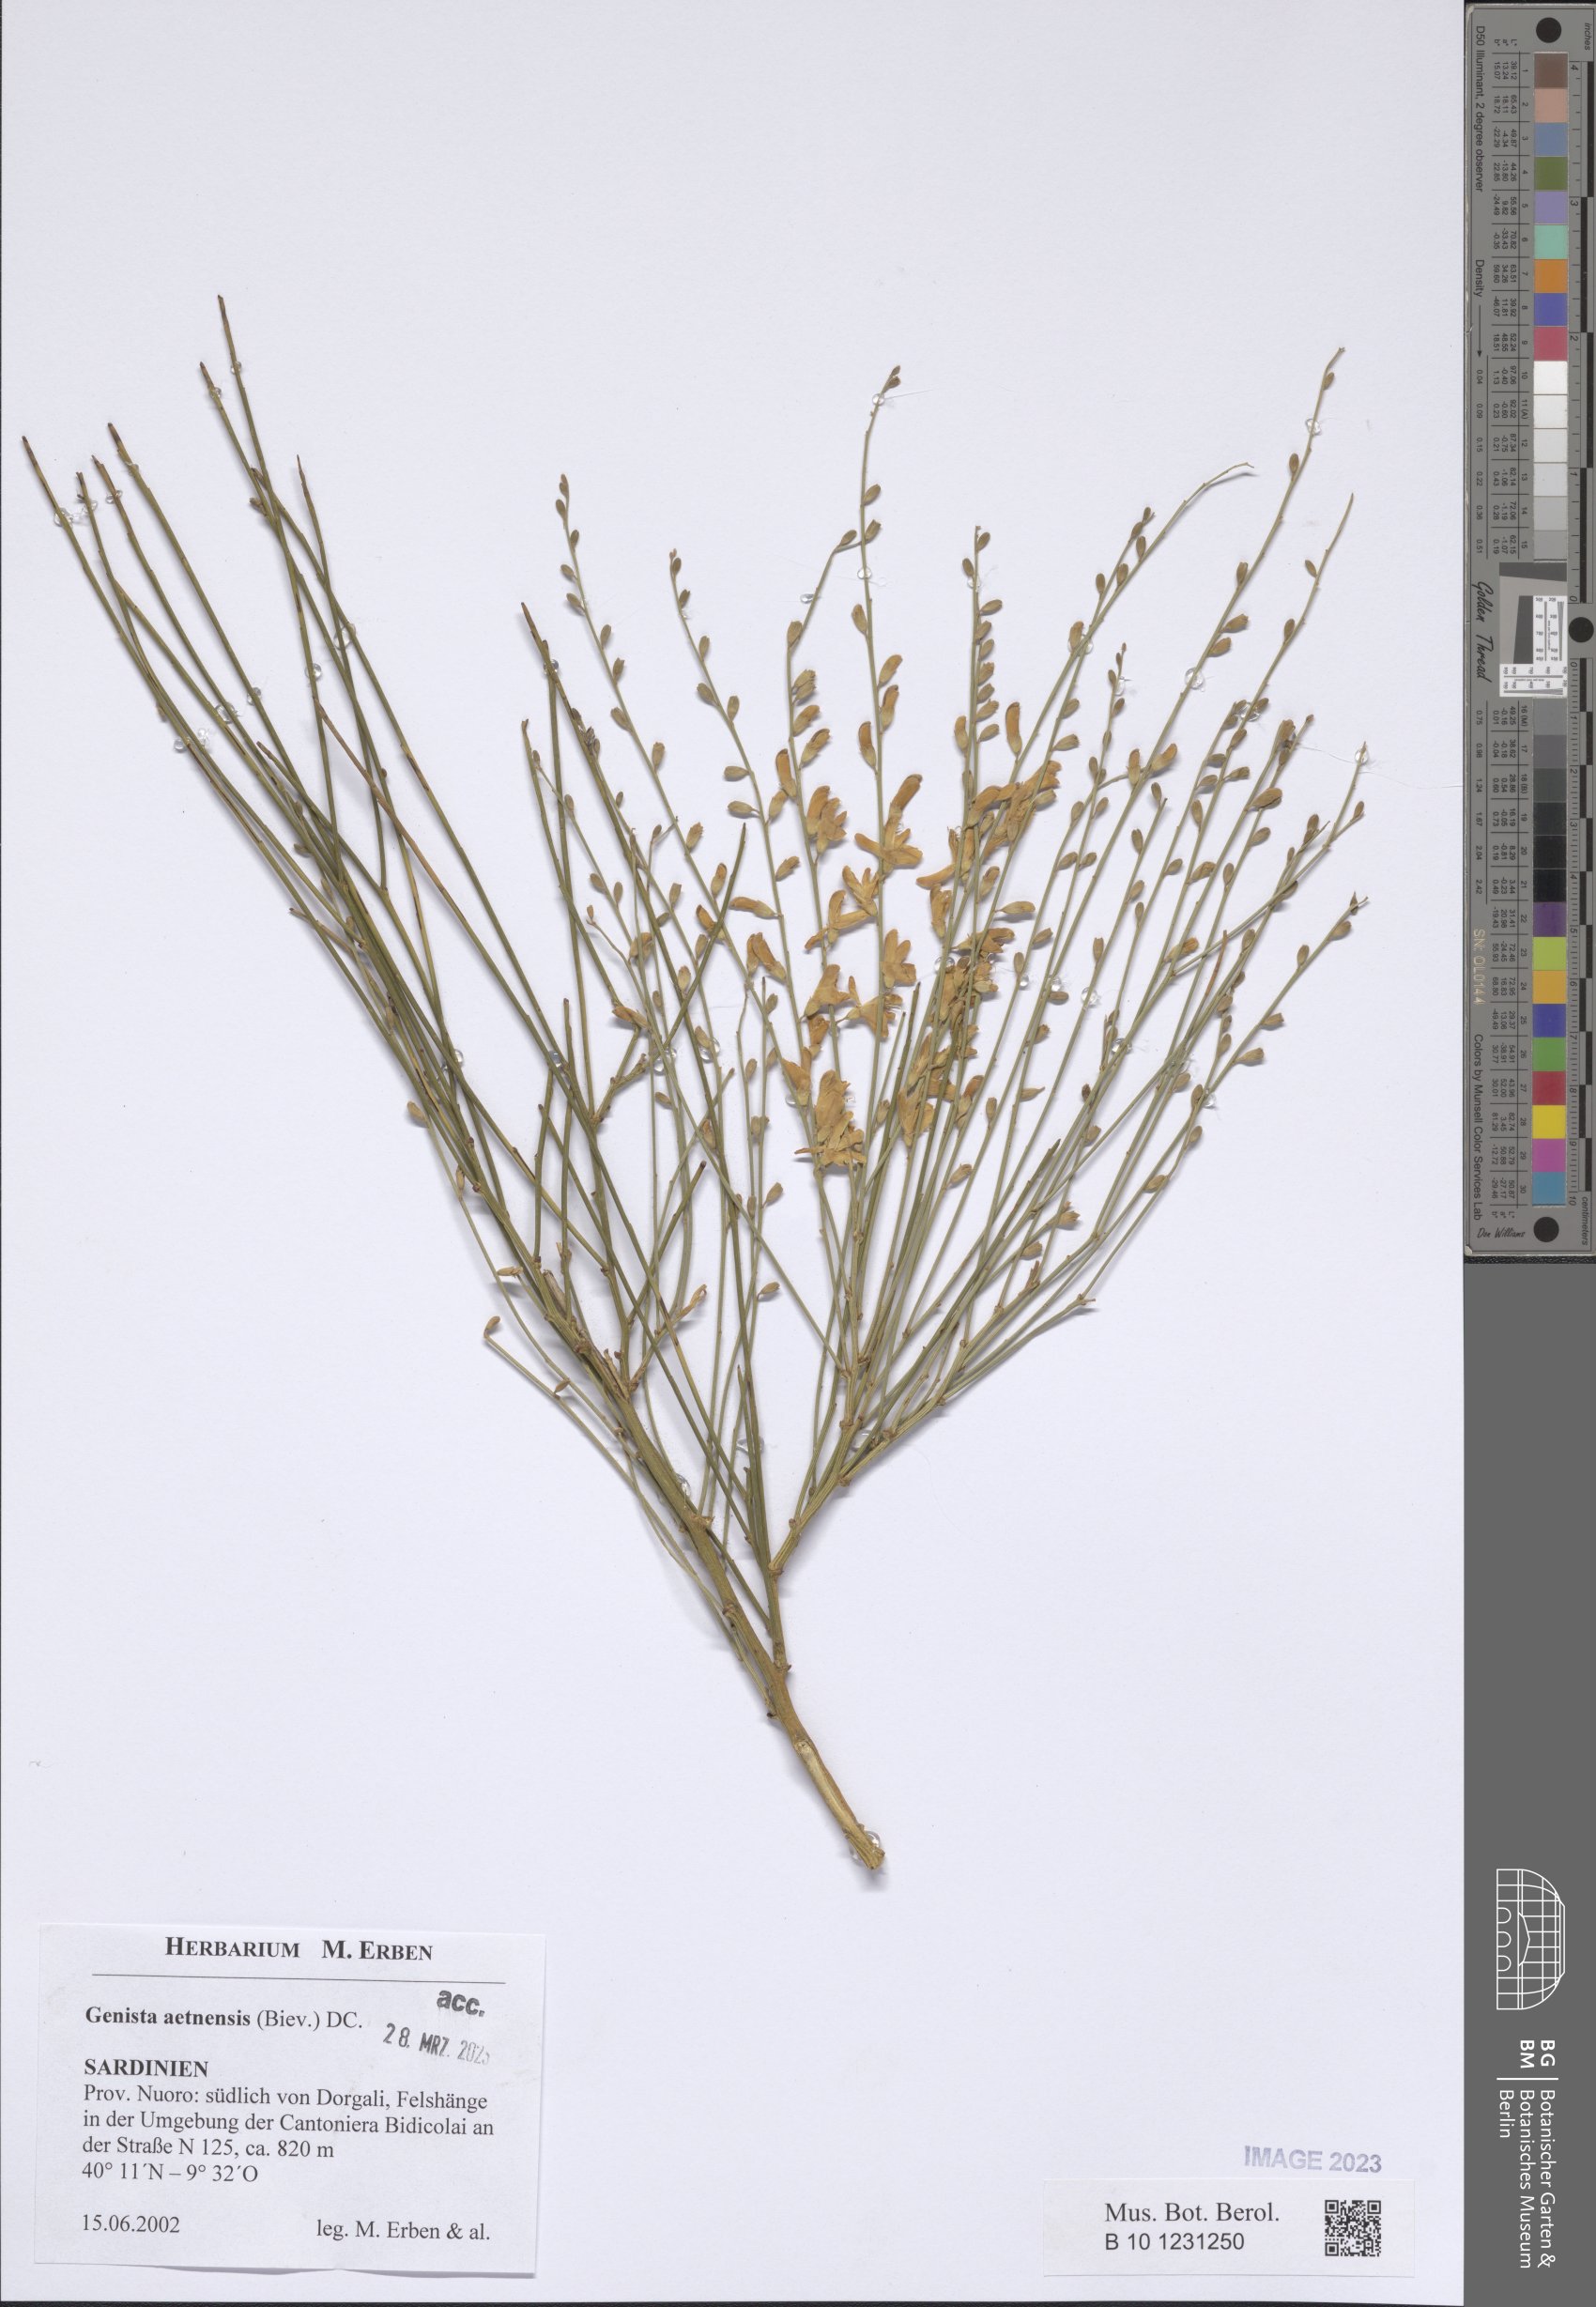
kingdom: Plantae
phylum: Tracheophyta
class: Magnoliopsida
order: Fabales
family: Fabaceae
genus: Genista
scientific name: Genista aetnensis
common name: Mount etna broom
